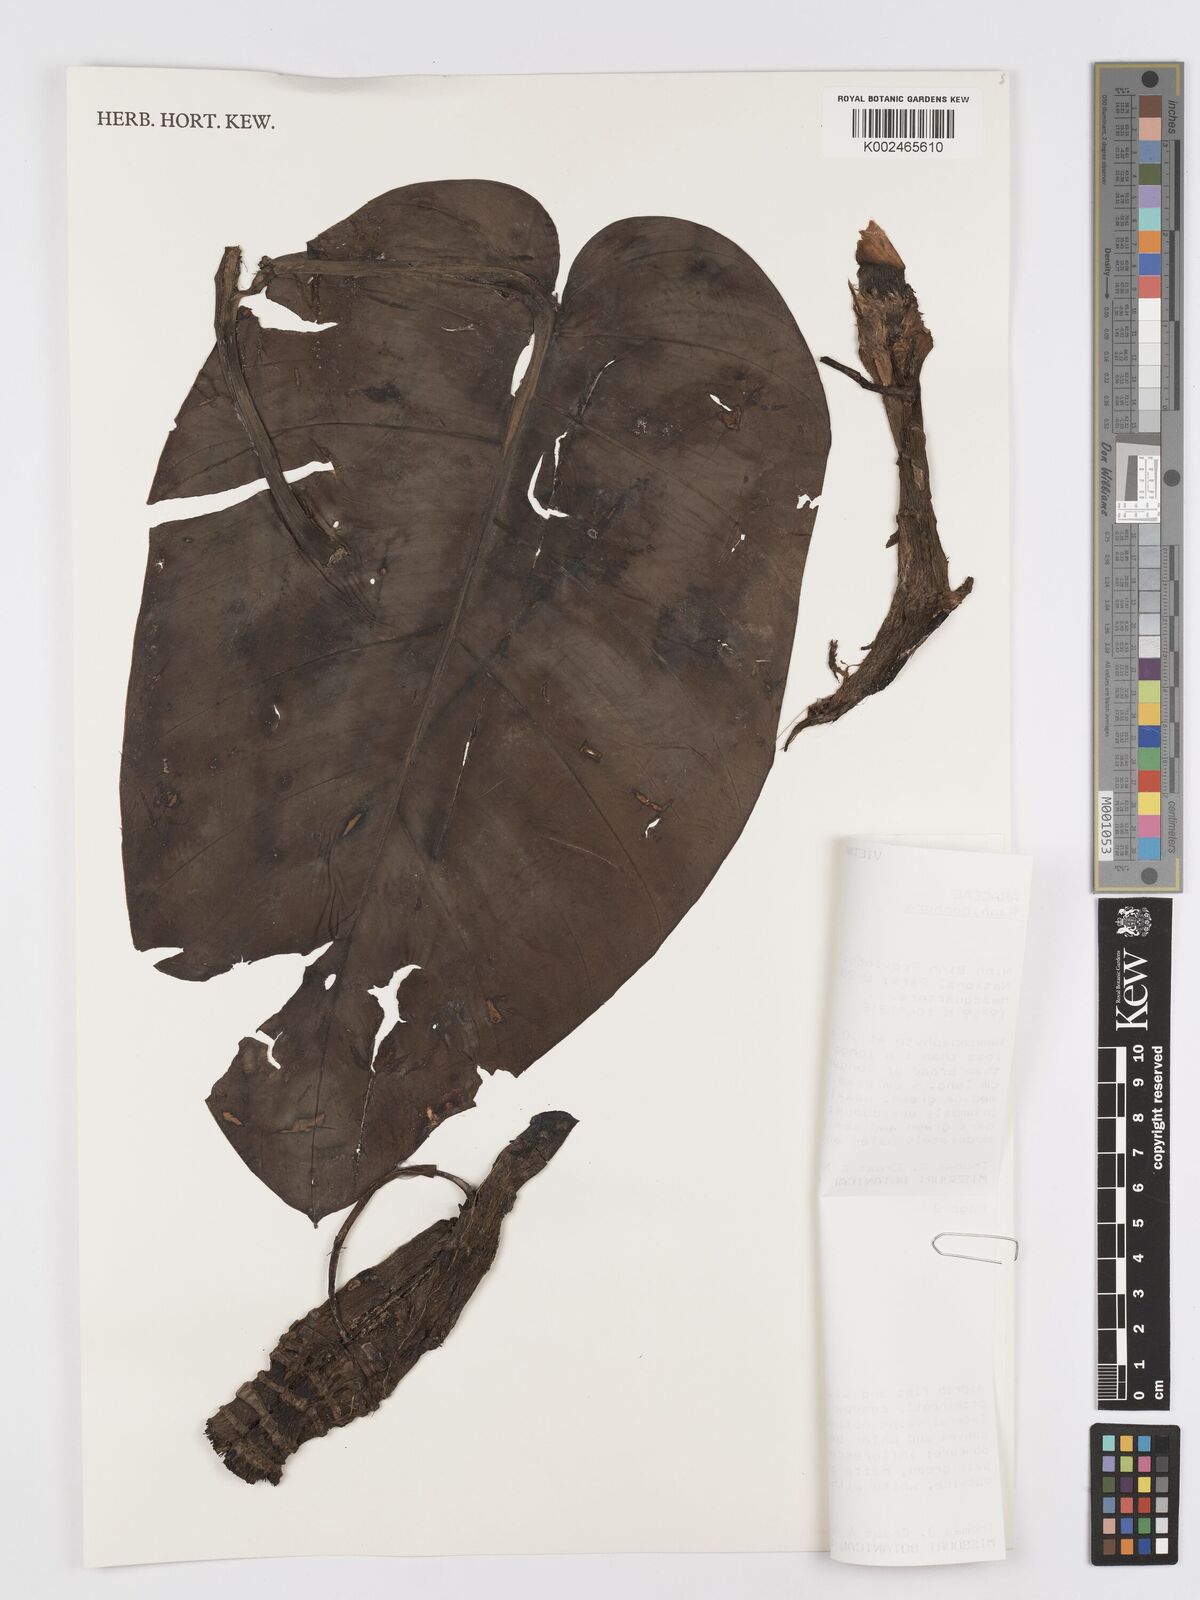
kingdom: Plantae
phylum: Tracheophyta
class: Liliopsida
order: Alismatales
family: Araceae
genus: Rhaphidophora
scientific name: Rhaphidophora megaphylla
